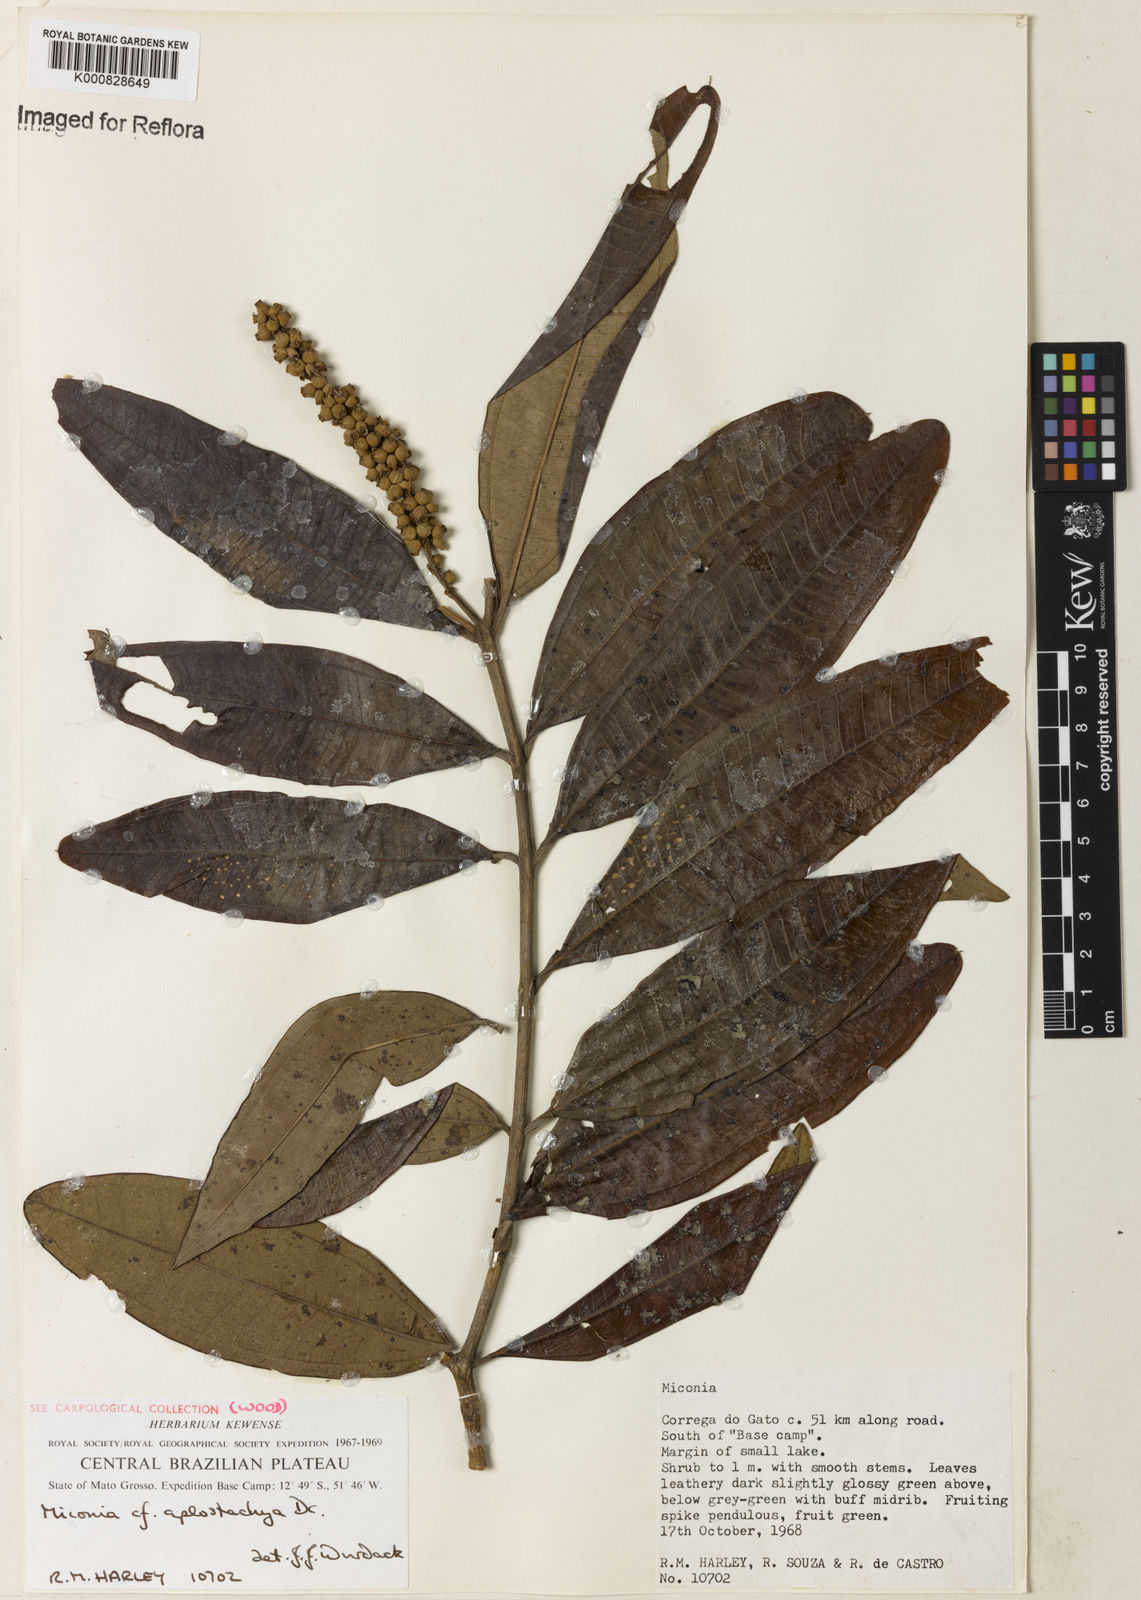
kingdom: Plantae
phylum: Tracheophyta
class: Magnoliopsida
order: Myrtales
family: Melastomataceae
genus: Miconia
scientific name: Miconia aplostachya
